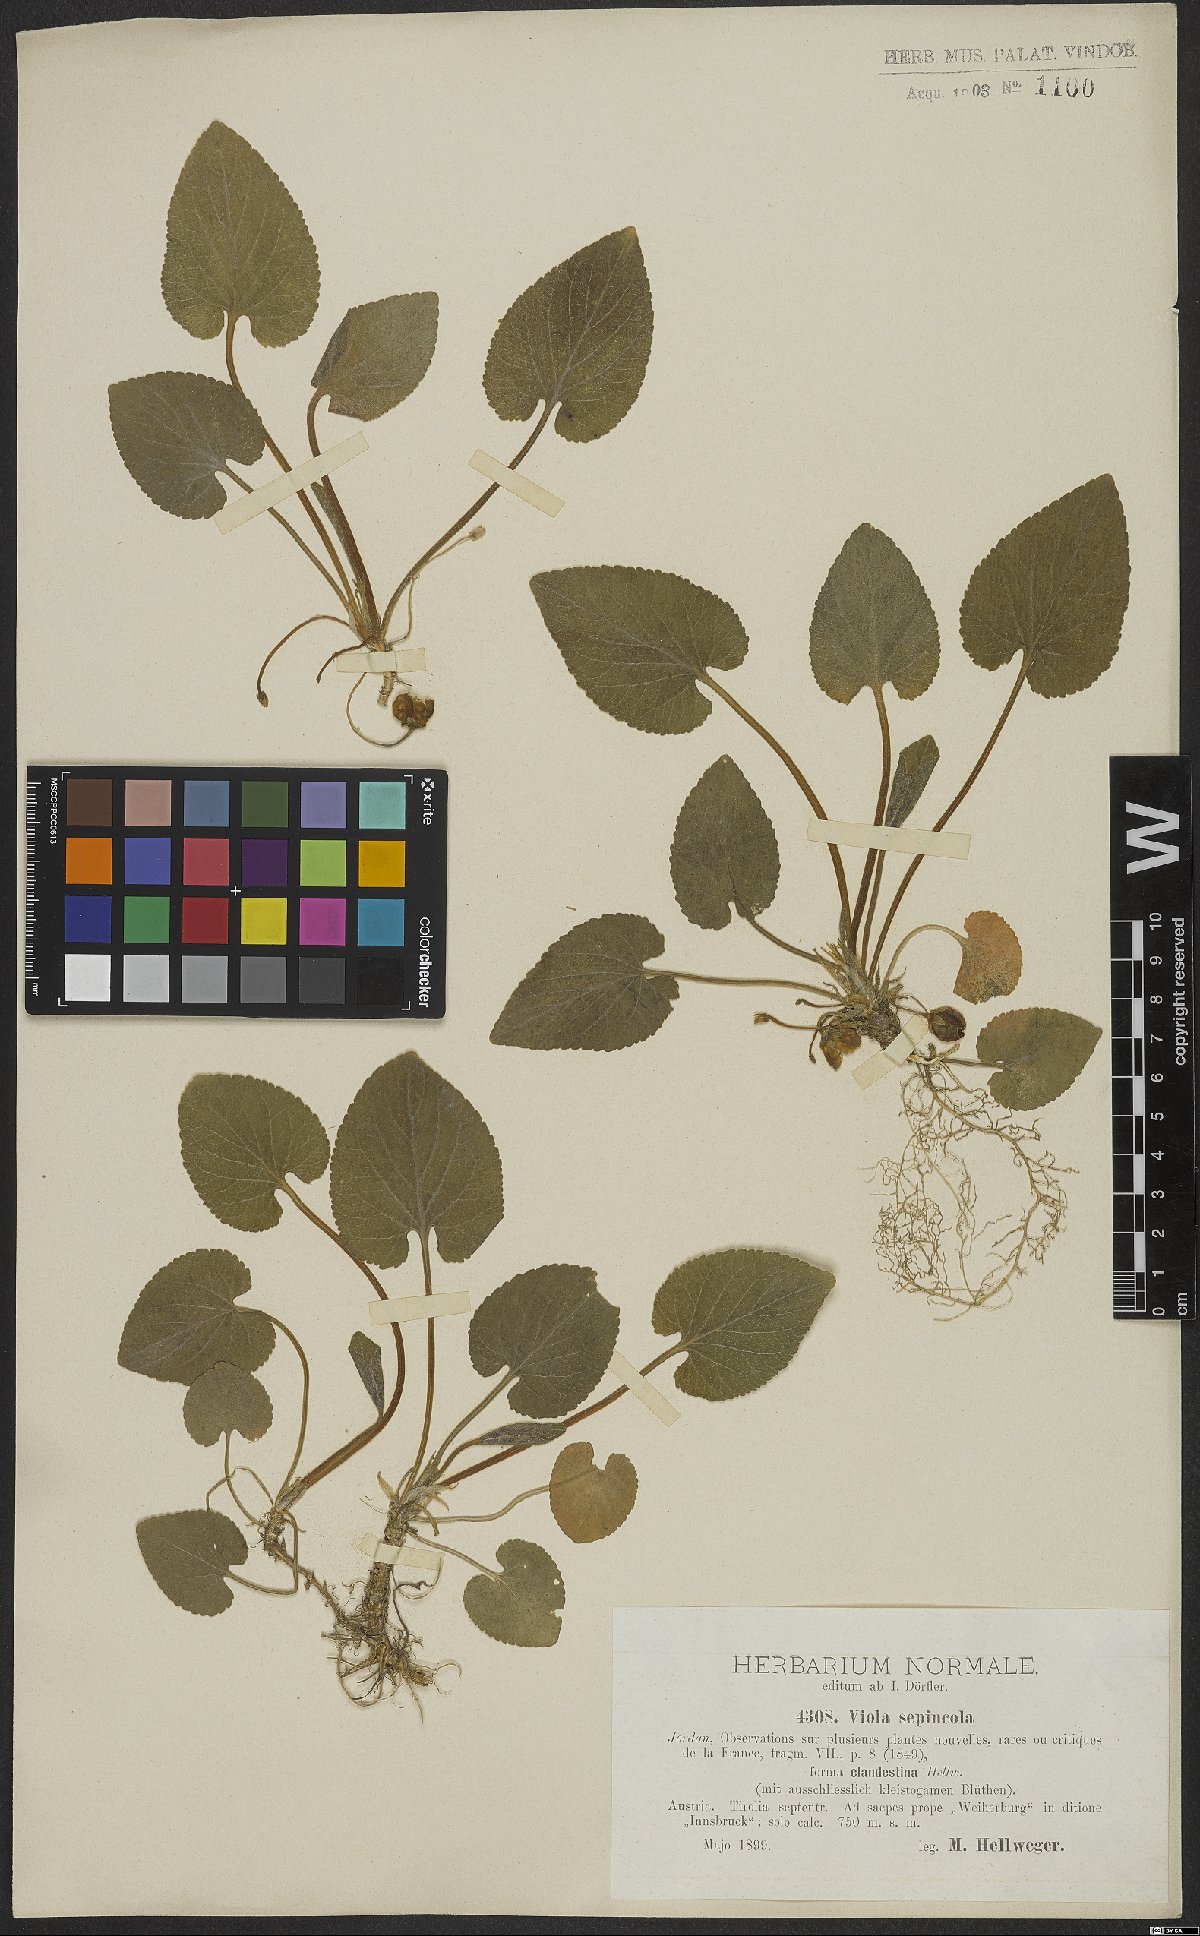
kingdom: Plantae
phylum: Tracheophyta
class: Magnoliopsida
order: Malpighiales
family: Violaceae
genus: Viola
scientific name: Viola suavis
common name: Russian violet
